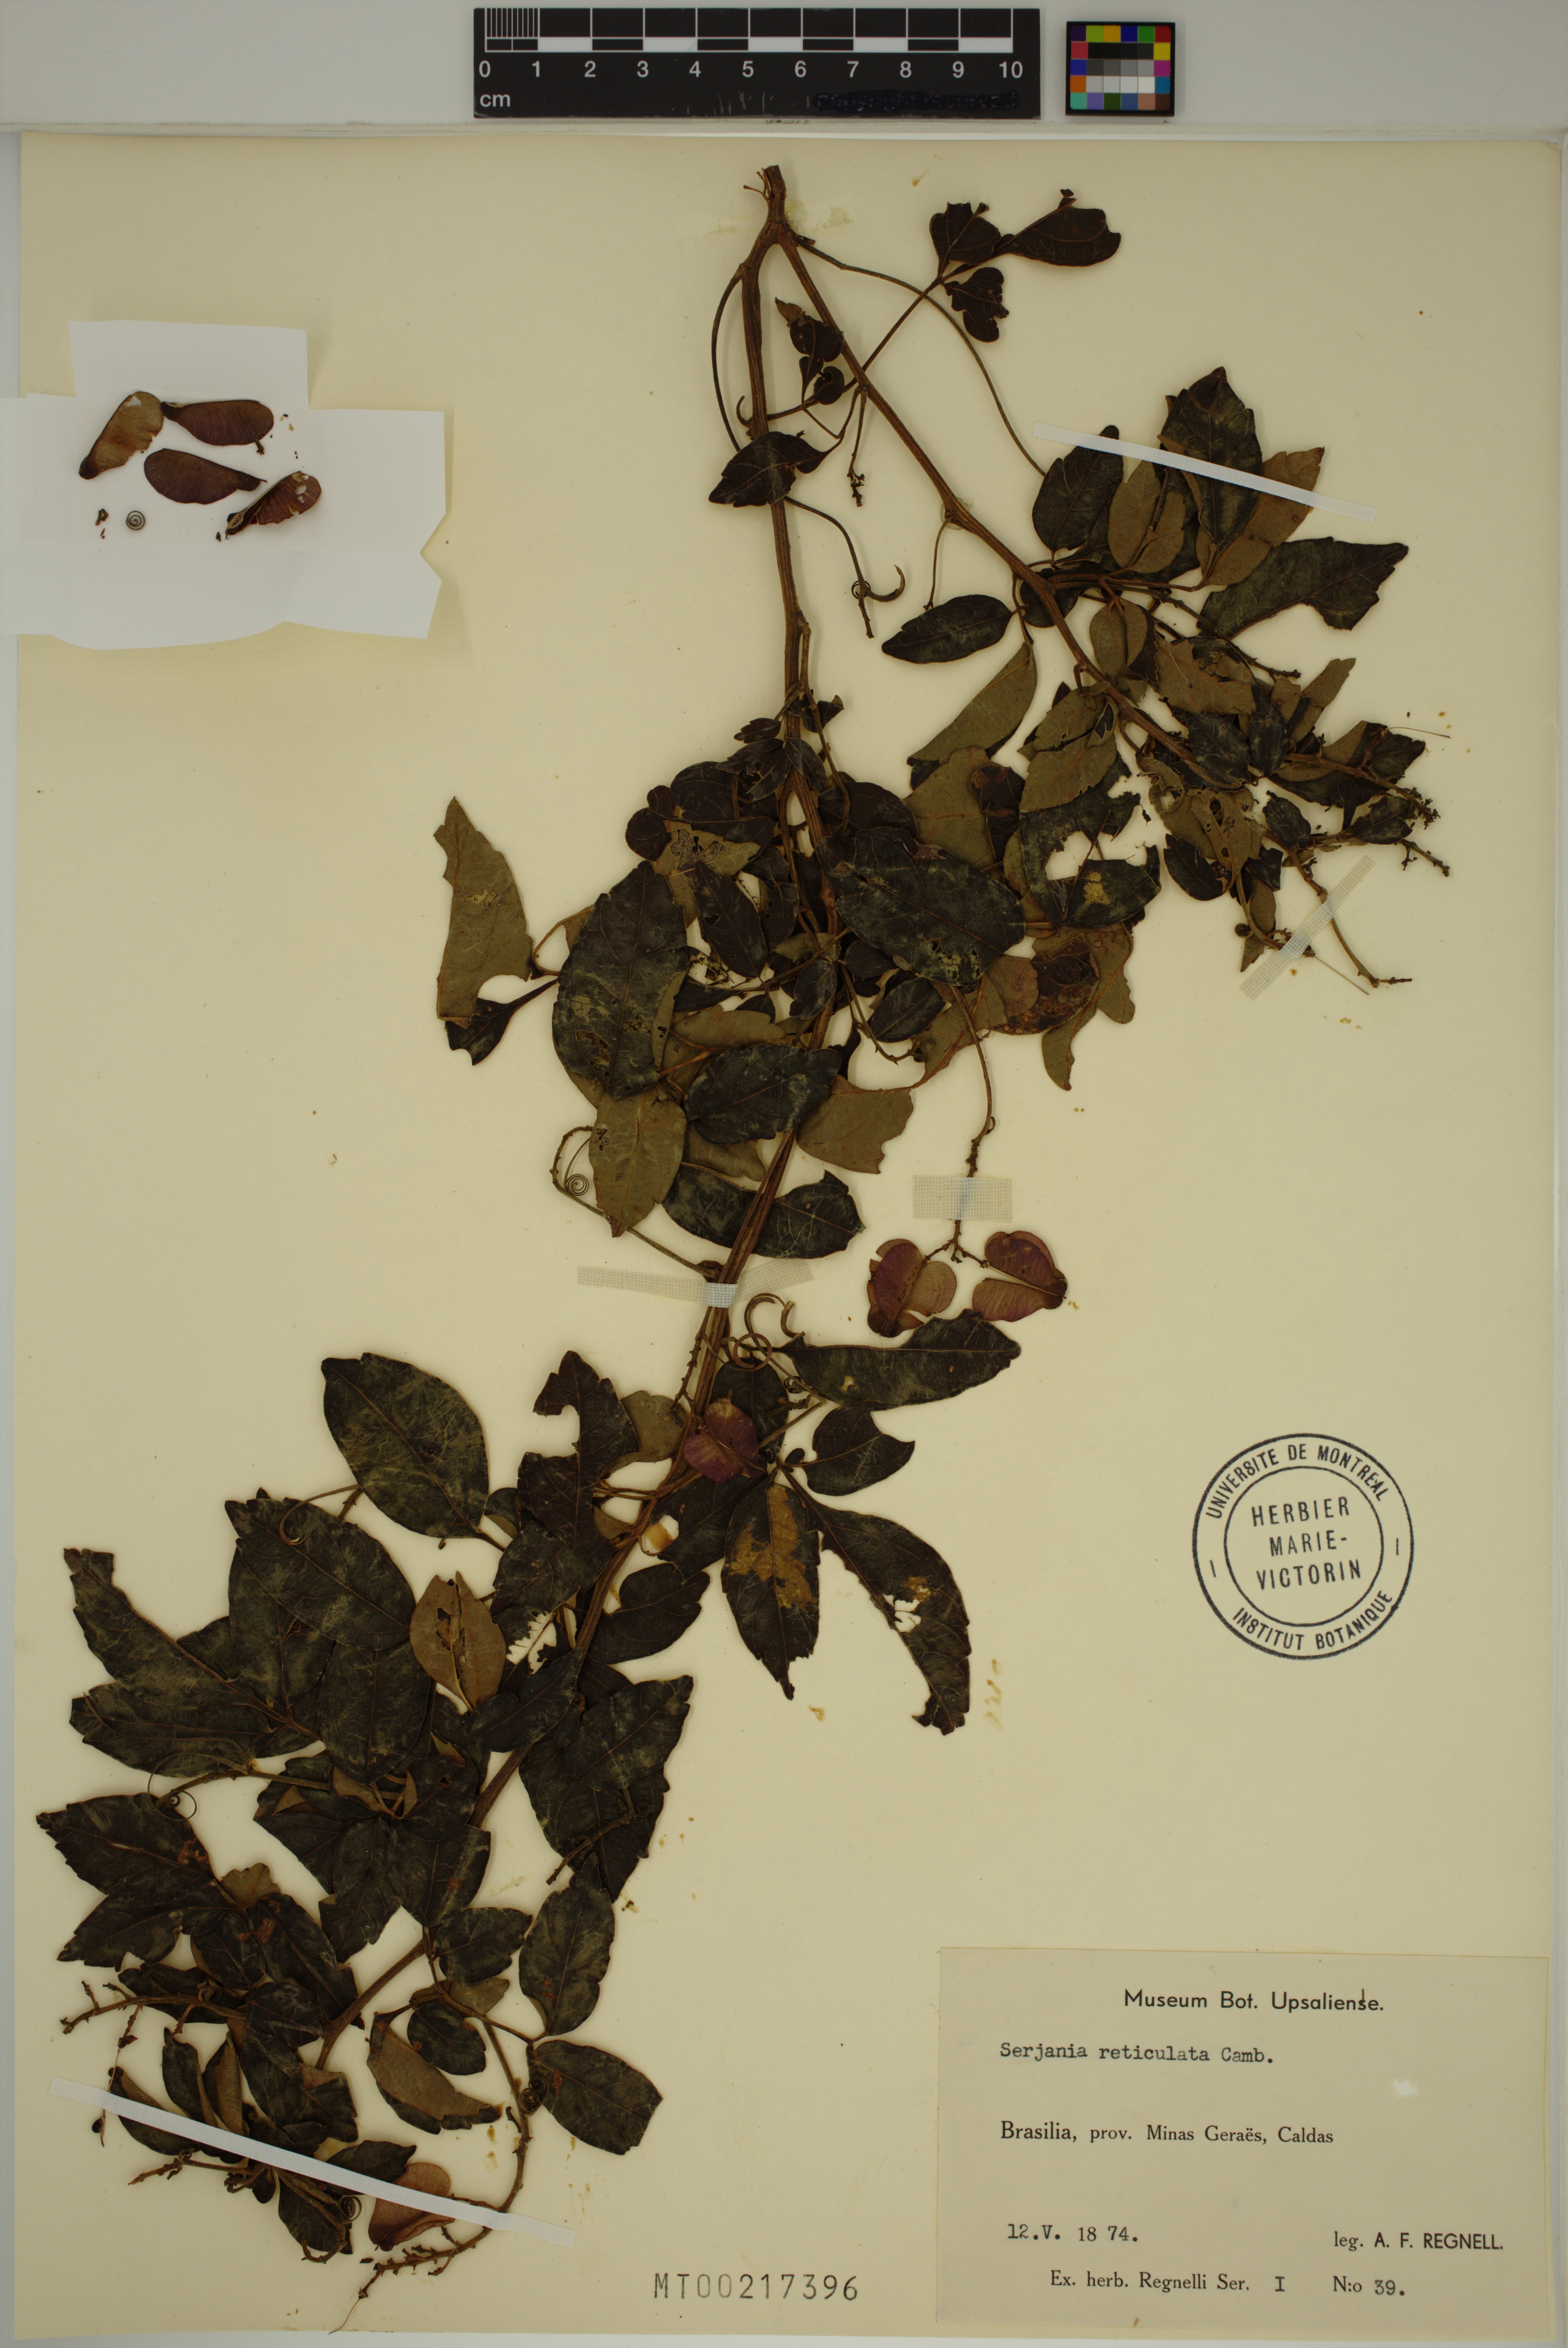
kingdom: Plantae
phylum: Tracheophyta
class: Magnoliopsida
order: Sapindales
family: Sapindaceae
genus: Serjania
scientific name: Serjania reticulata
